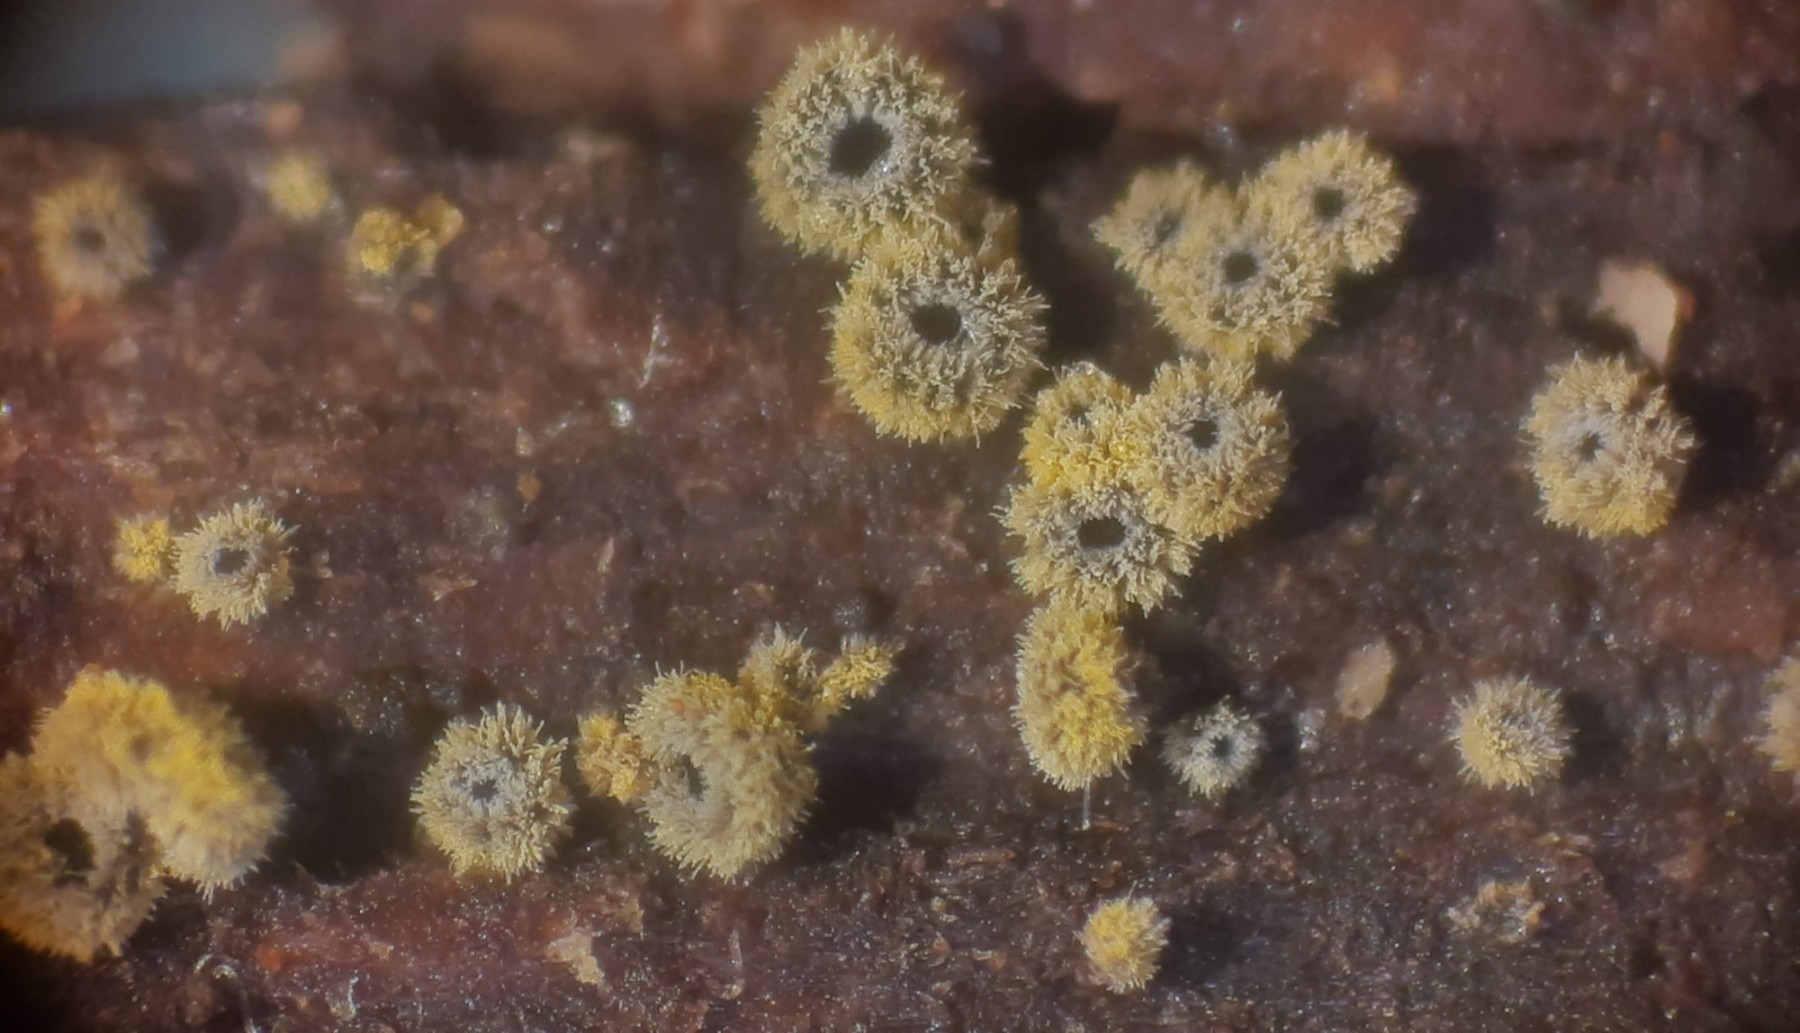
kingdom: Fungi
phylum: Ascomycota
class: Leotiomycetes
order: Helotiales
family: Lachnaceae
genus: Neodasyscypha
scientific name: Neodasyscypha cerina
